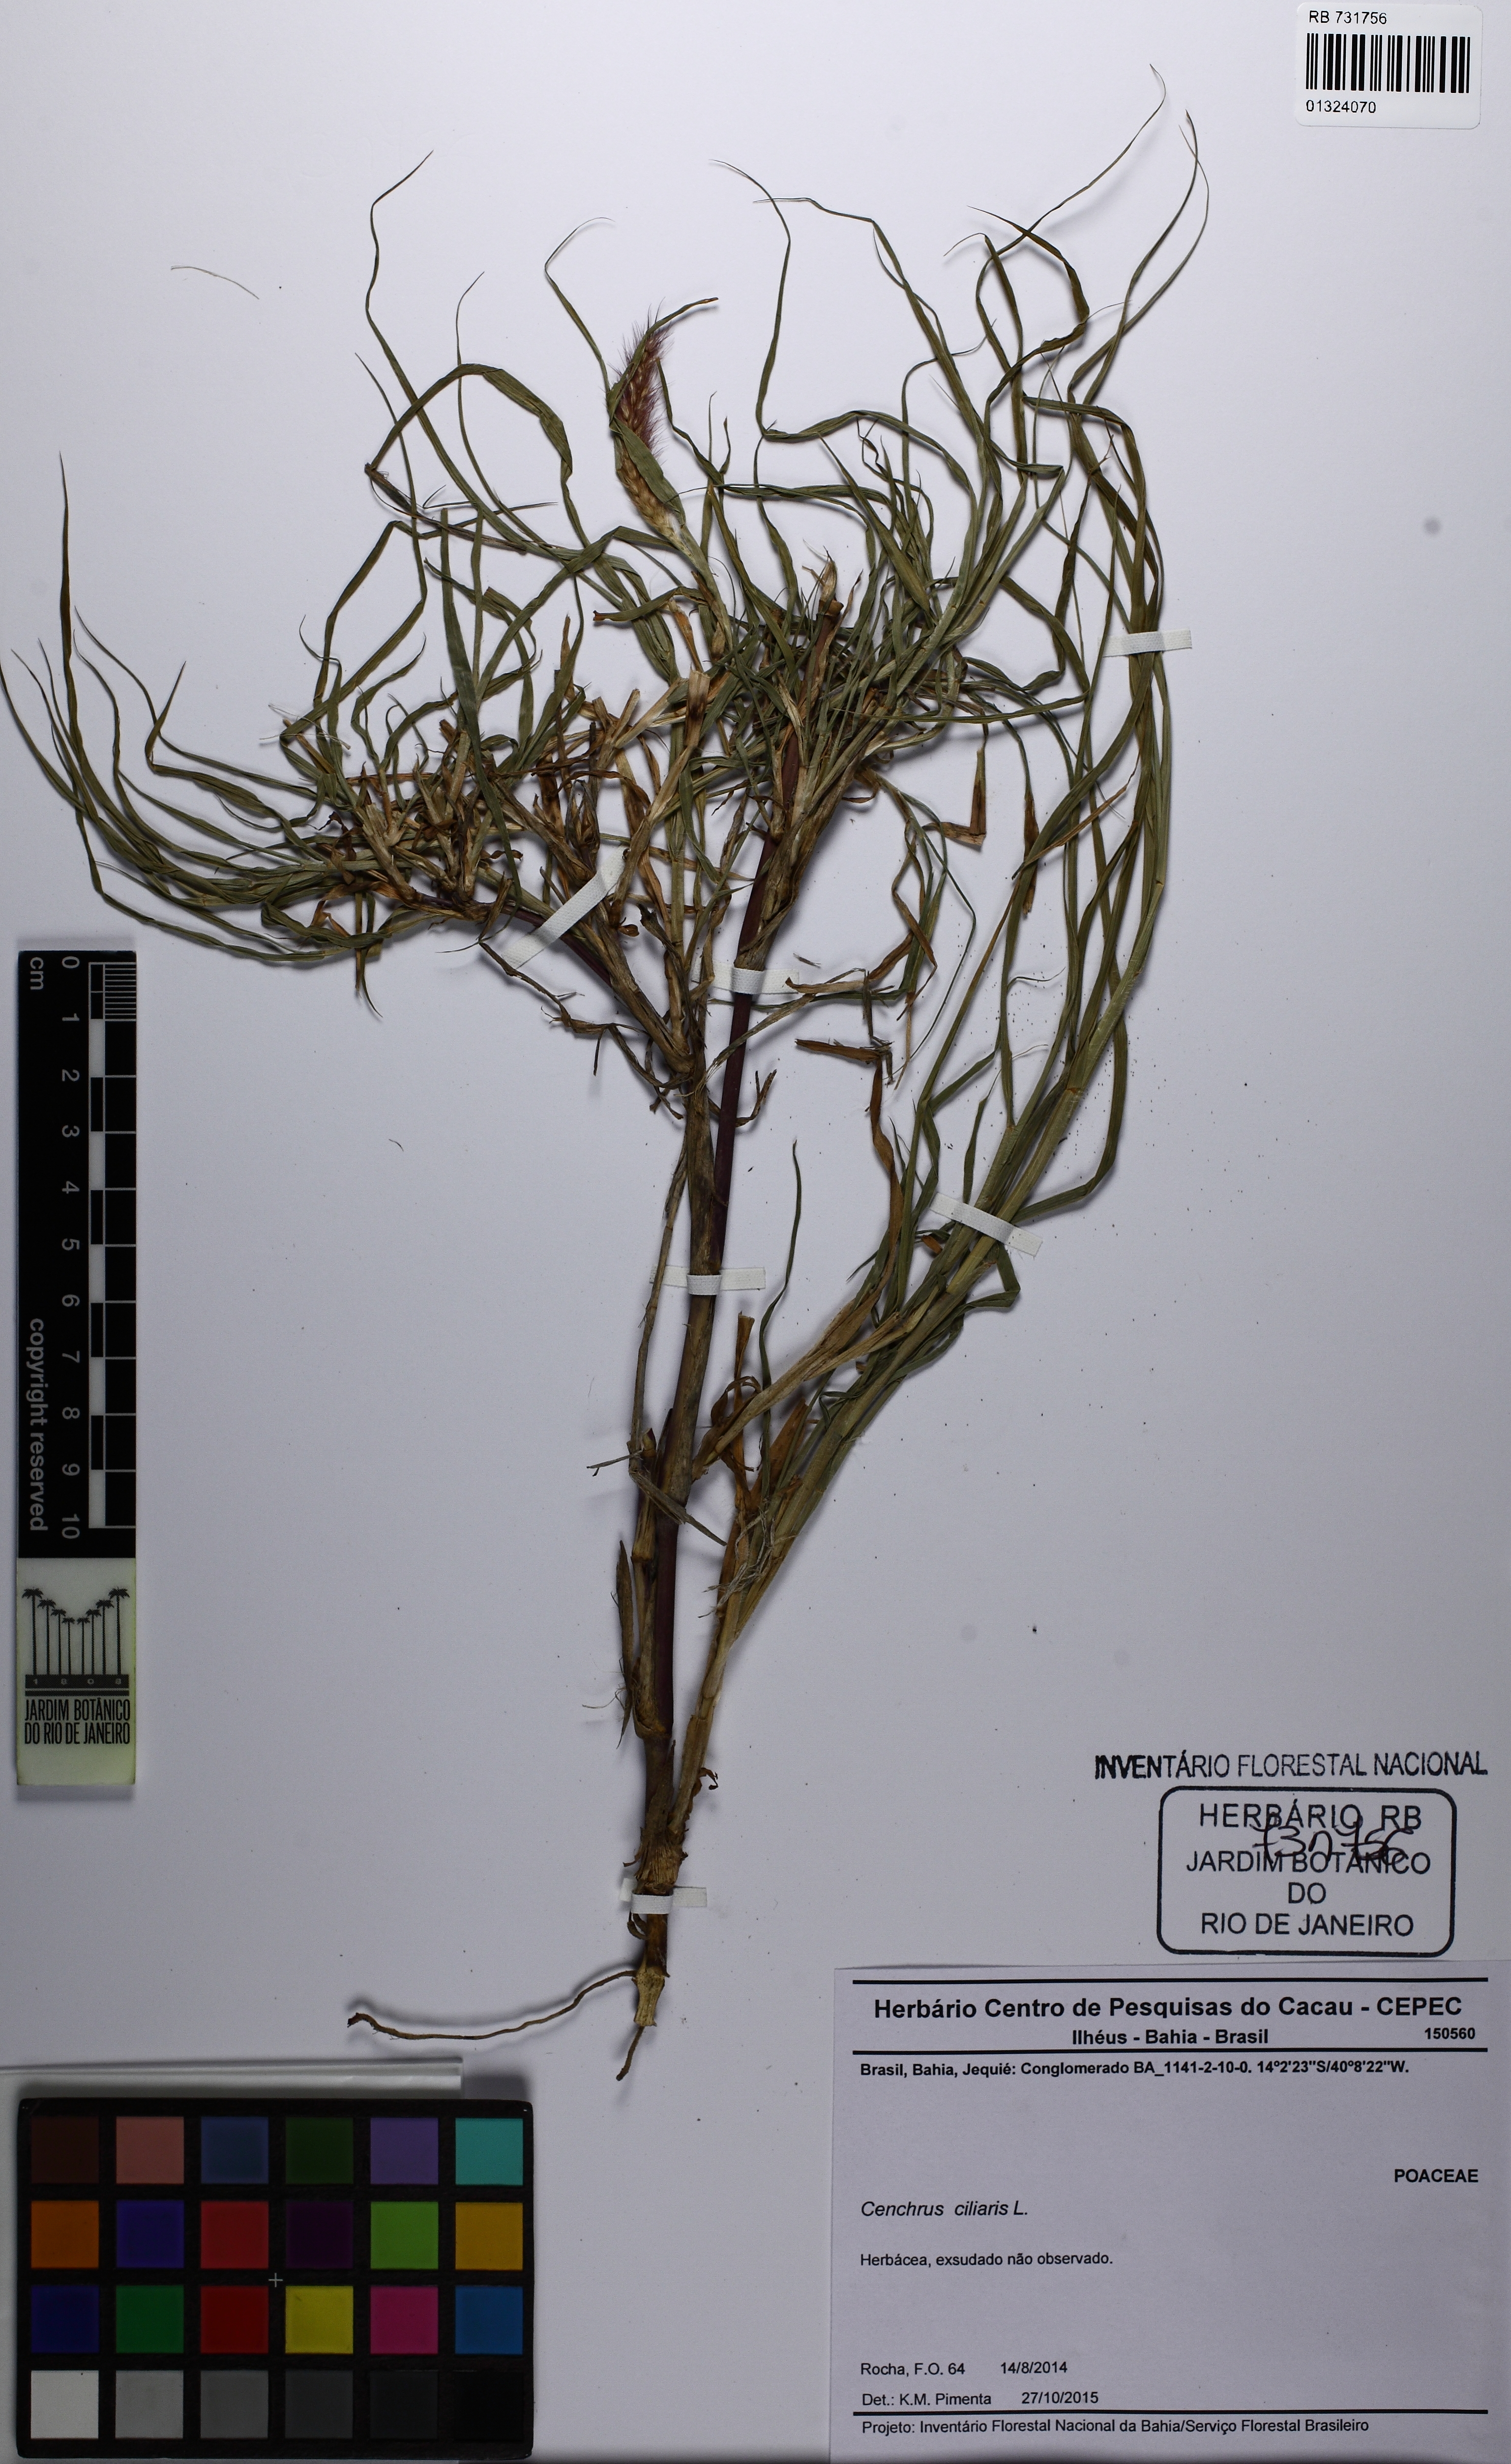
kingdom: Plantae
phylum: Tracheophyta
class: Liliopsida
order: Poales
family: Poaceae
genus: Cenchrus
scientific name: Cenchrus ciliaris
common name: Buffelgrass
